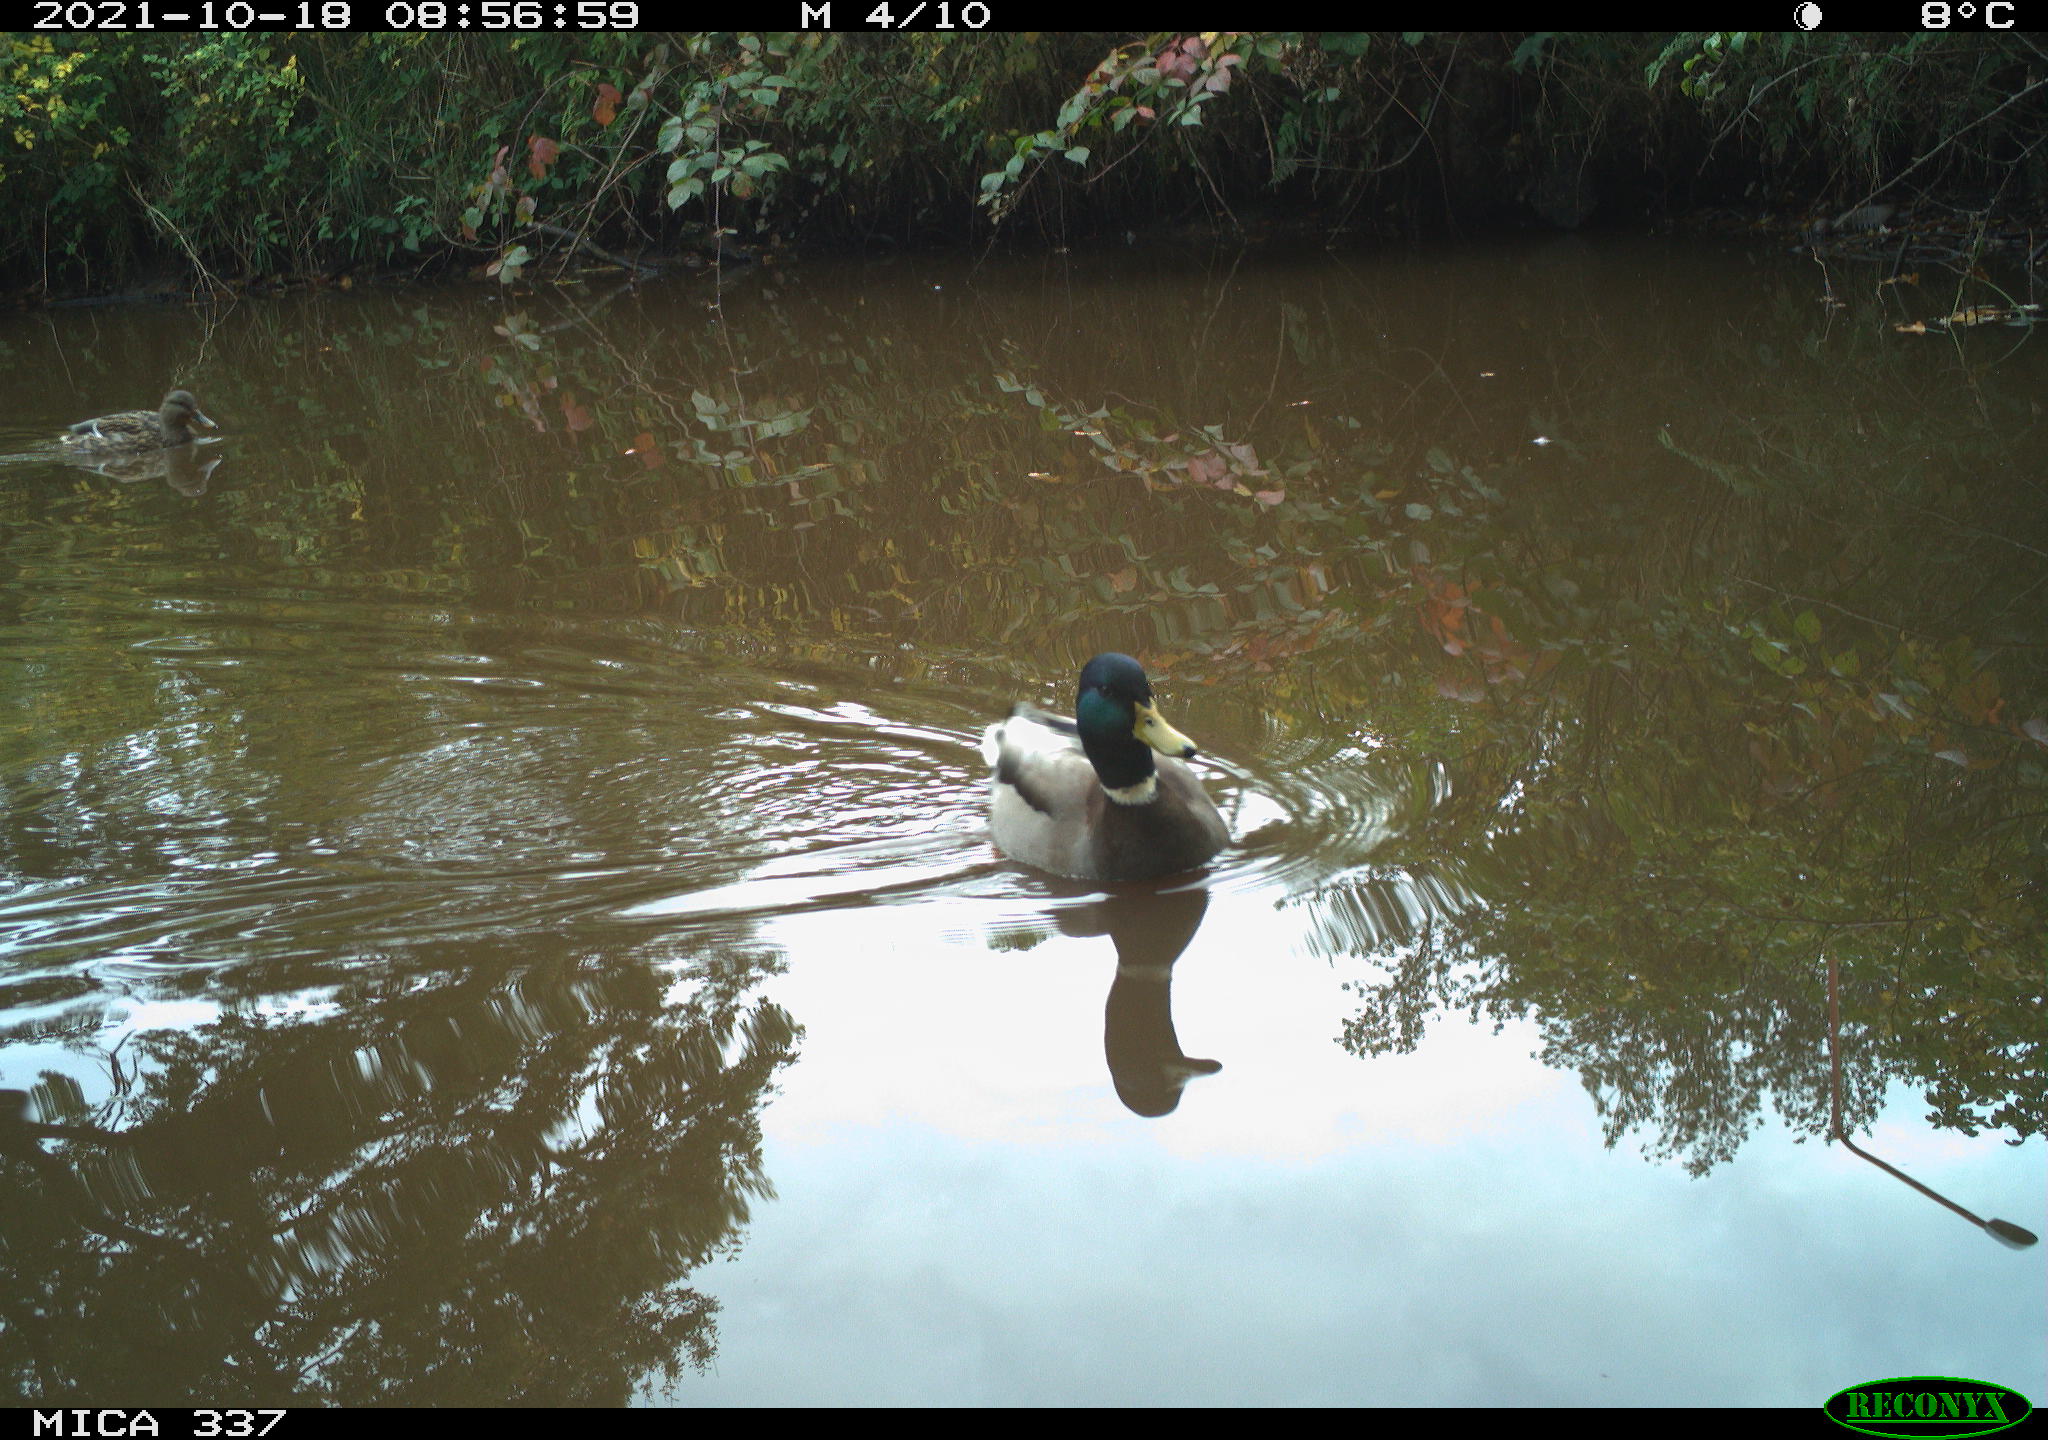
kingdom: Animalia
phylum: Chordata
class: Aves
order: Anseriformes
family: Anatidae
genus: Anas
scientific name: Anas platyrhynchos
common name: Mallard
